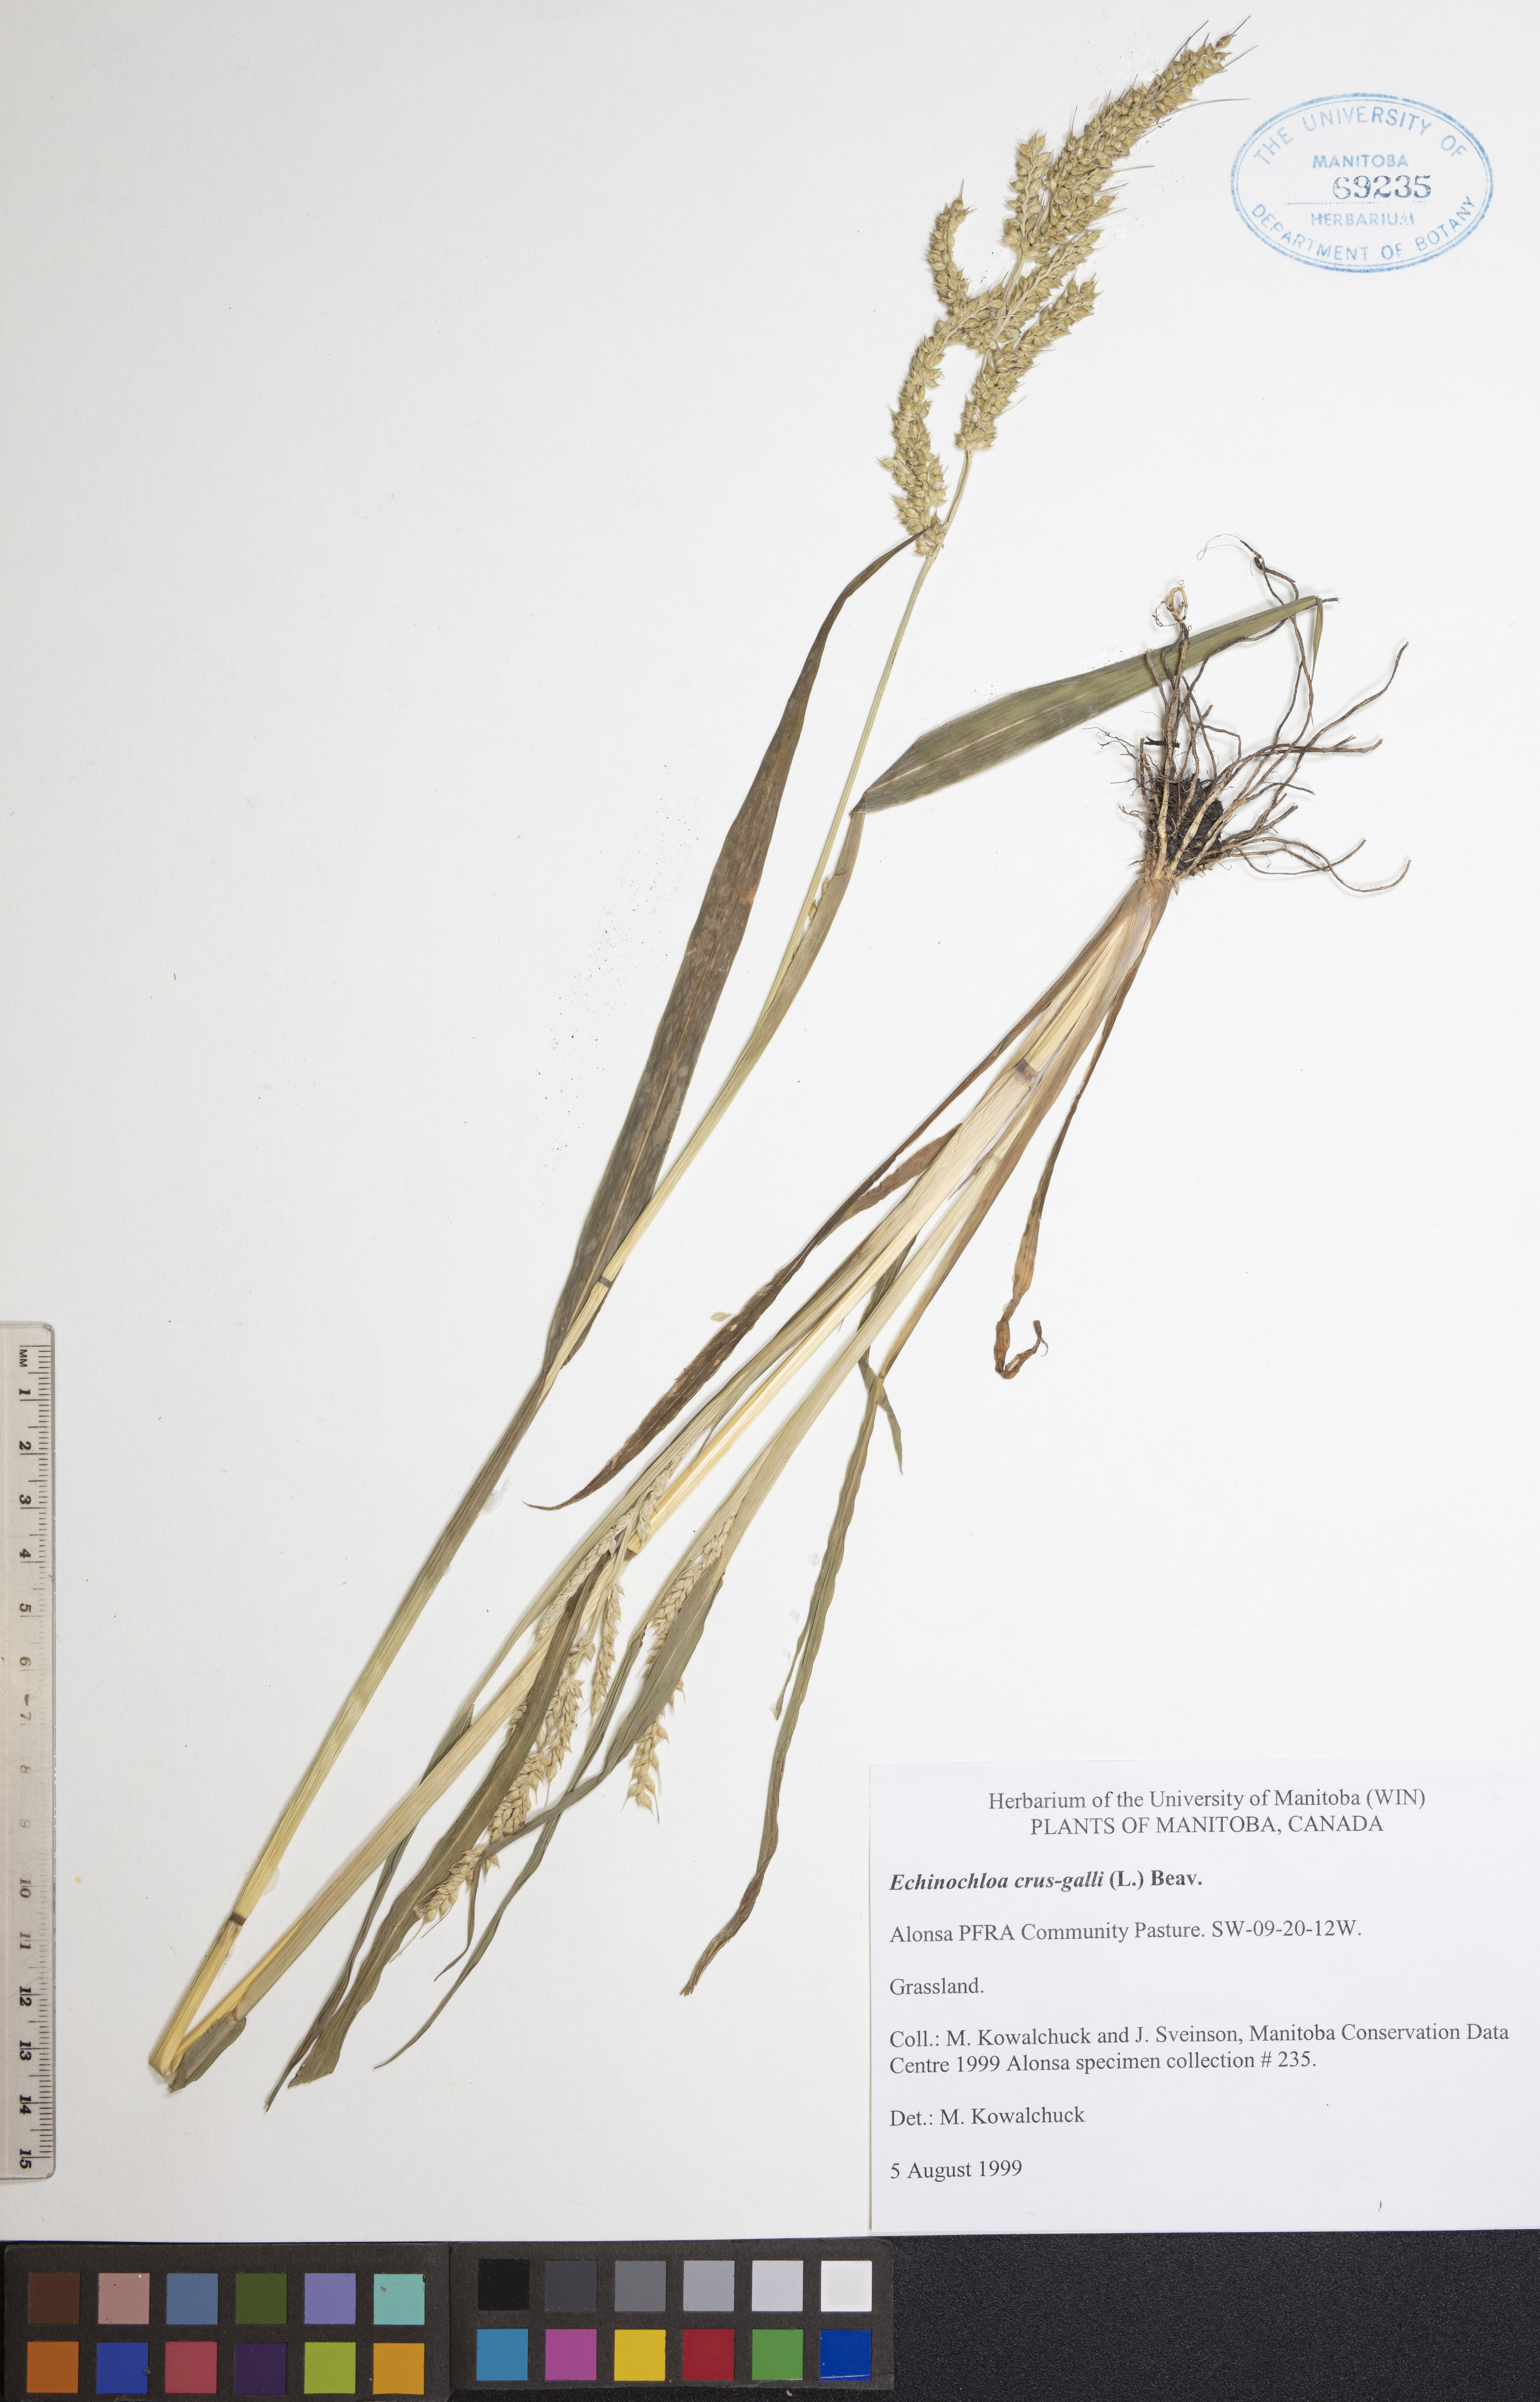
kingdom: Plantae
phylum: Tracheophyta
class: Liliopsida
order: Poales
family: Poaceae
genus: Echinochloa
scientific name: Echinochloa crus-galli
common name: Cockspur
